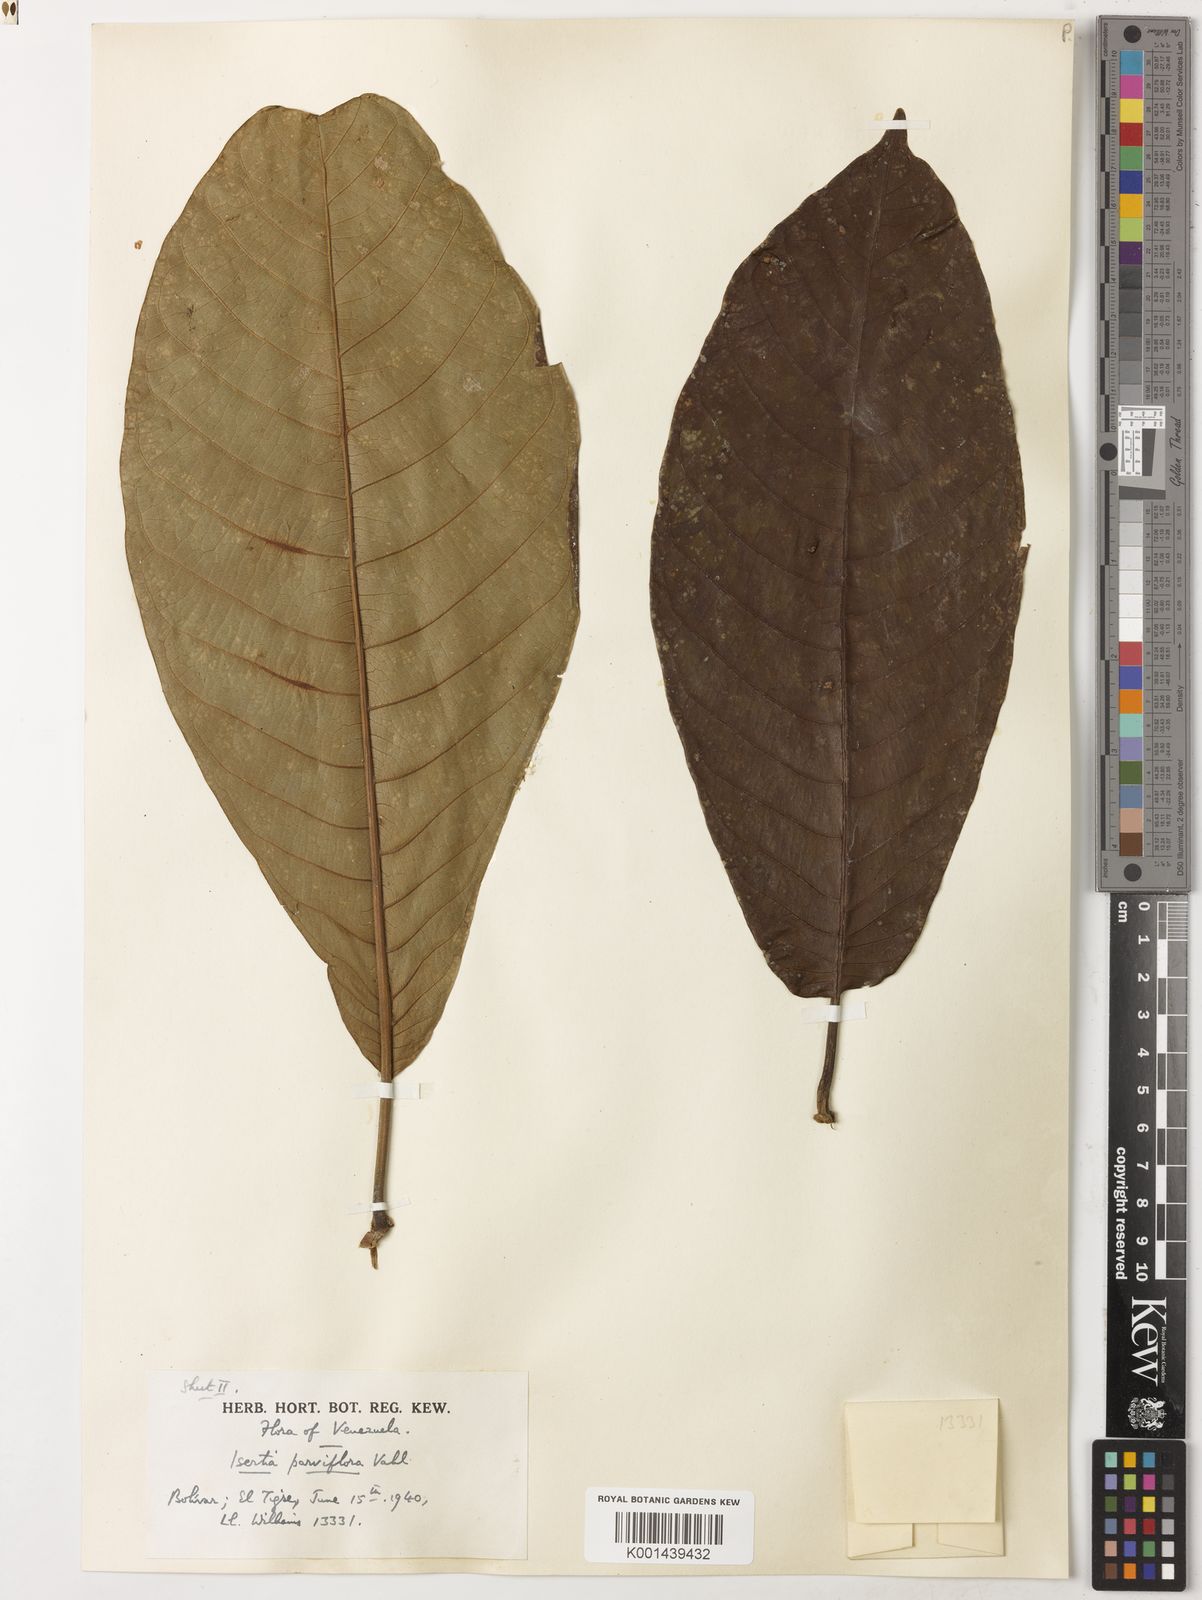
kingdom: Plantae
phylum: Tracheophyta
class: Magnoliopsida
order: Gentianales
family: Rubiaceae
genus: Isertia
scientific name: Isertia parviflora
